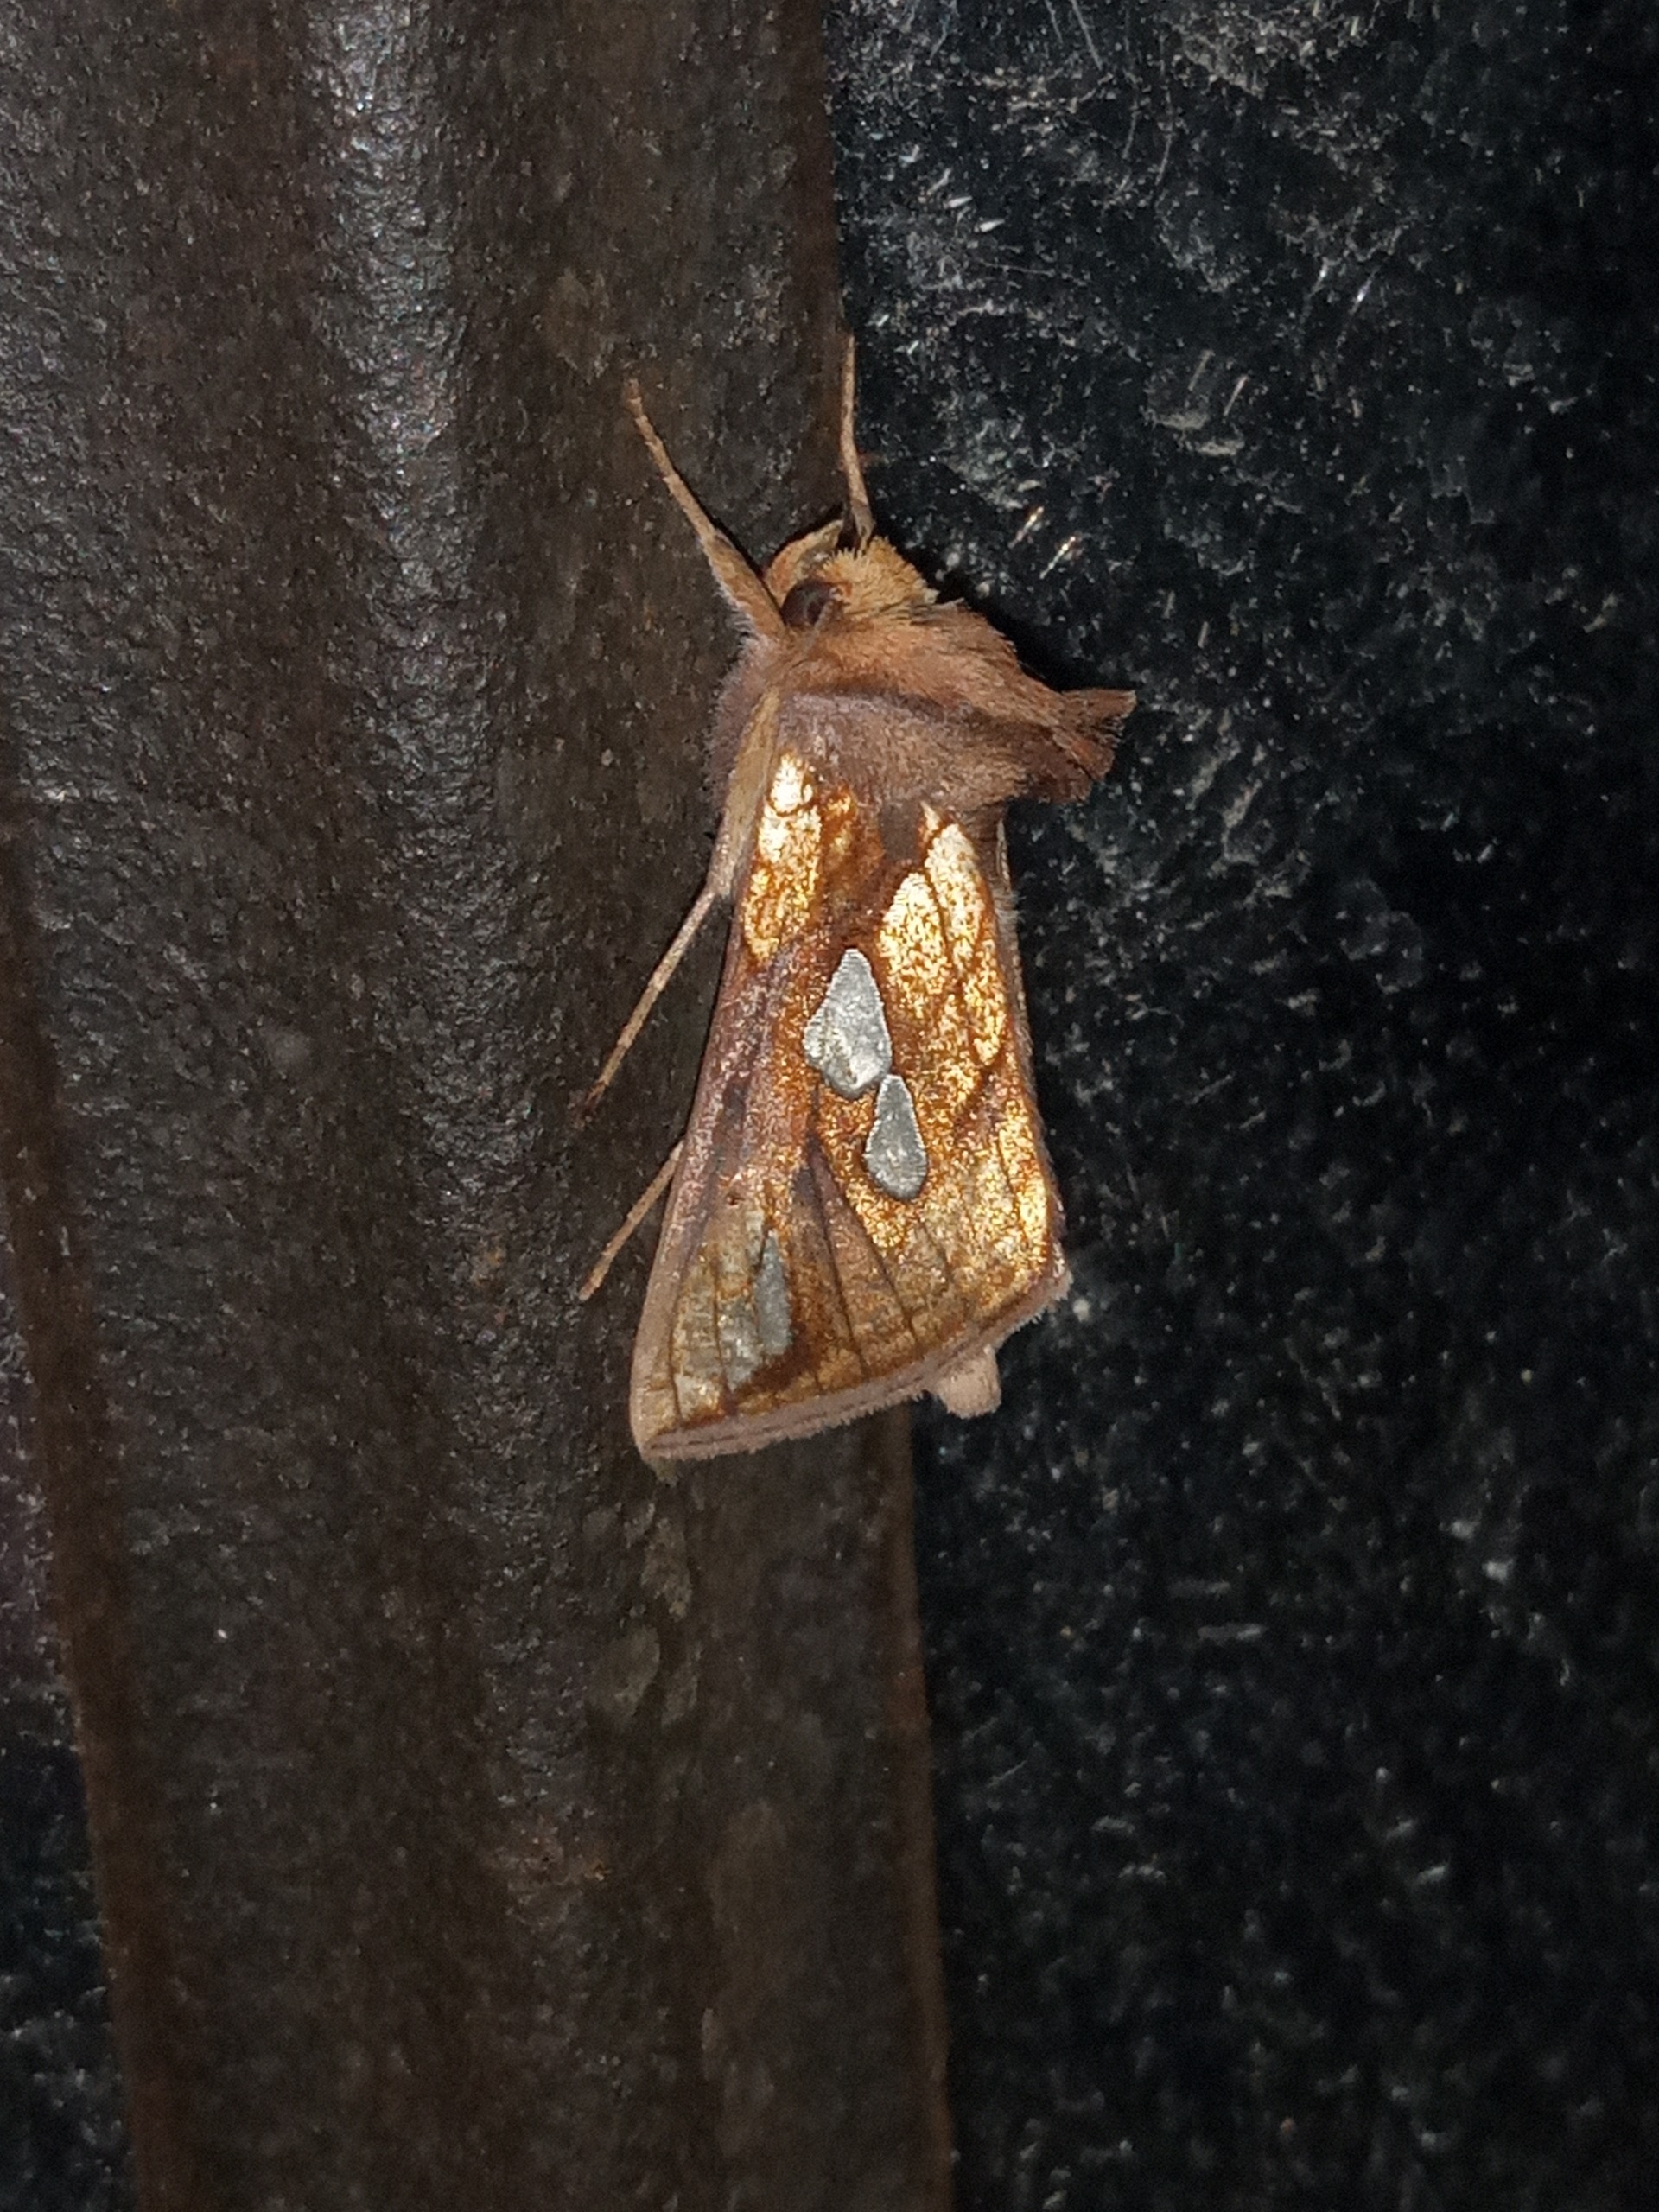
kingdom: Animalia
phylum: Arthropoda
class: Insecta
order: Lepidoptera
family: Noctuidae
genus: Plusia
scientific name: Plusia festucae
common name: Svingelugle
